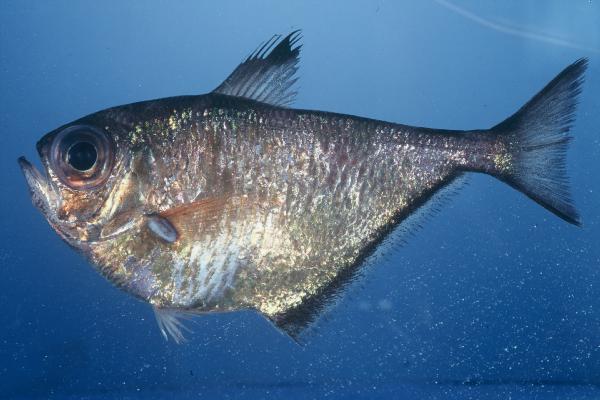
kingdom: Animalia
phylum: Chordata
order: Perciformes
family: Pempheridae
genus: Pempheris
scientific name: Pempheris connelli
